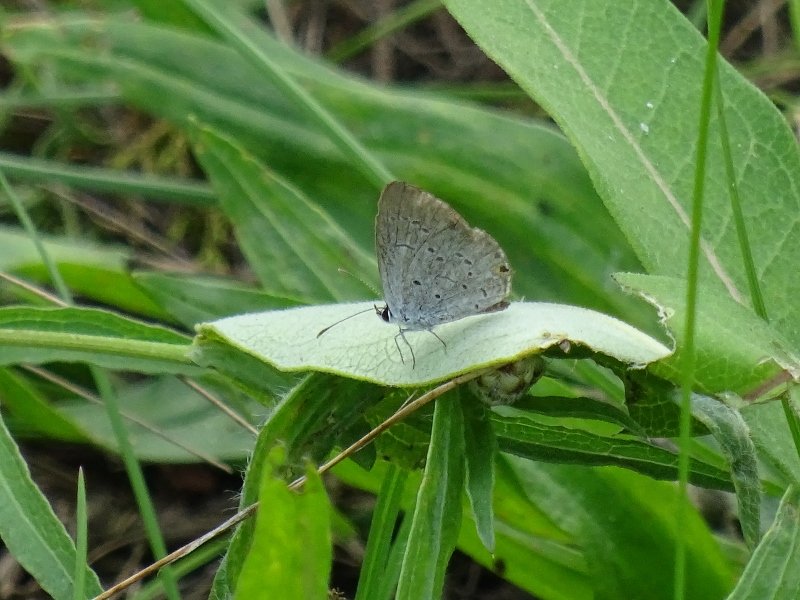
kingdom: Animalia
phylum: Arthropoda
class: Insecta
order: Lepidoptera
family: Lycaenidae
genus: Elkalyce
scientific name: Elkalyce comyntas
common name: Eastern Tailed-Blue
